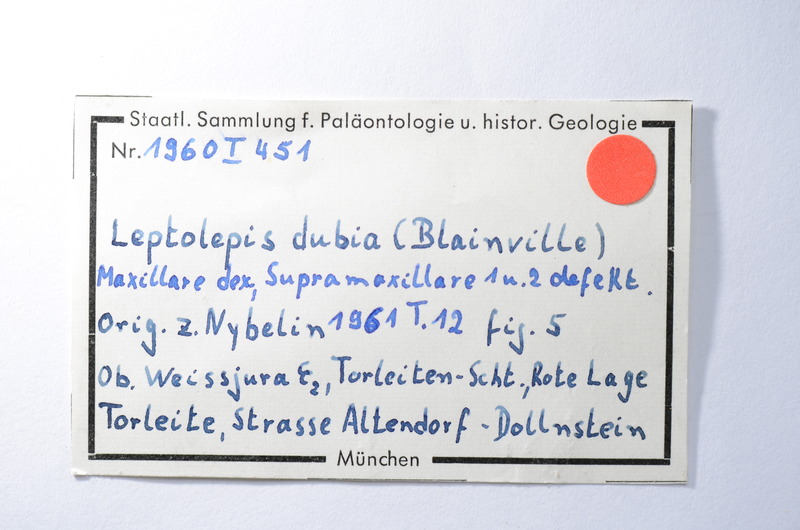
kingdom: Animalia
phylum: Chordata
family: Ascalaboidae
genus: Tharsis
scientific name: Tharsis dubius
